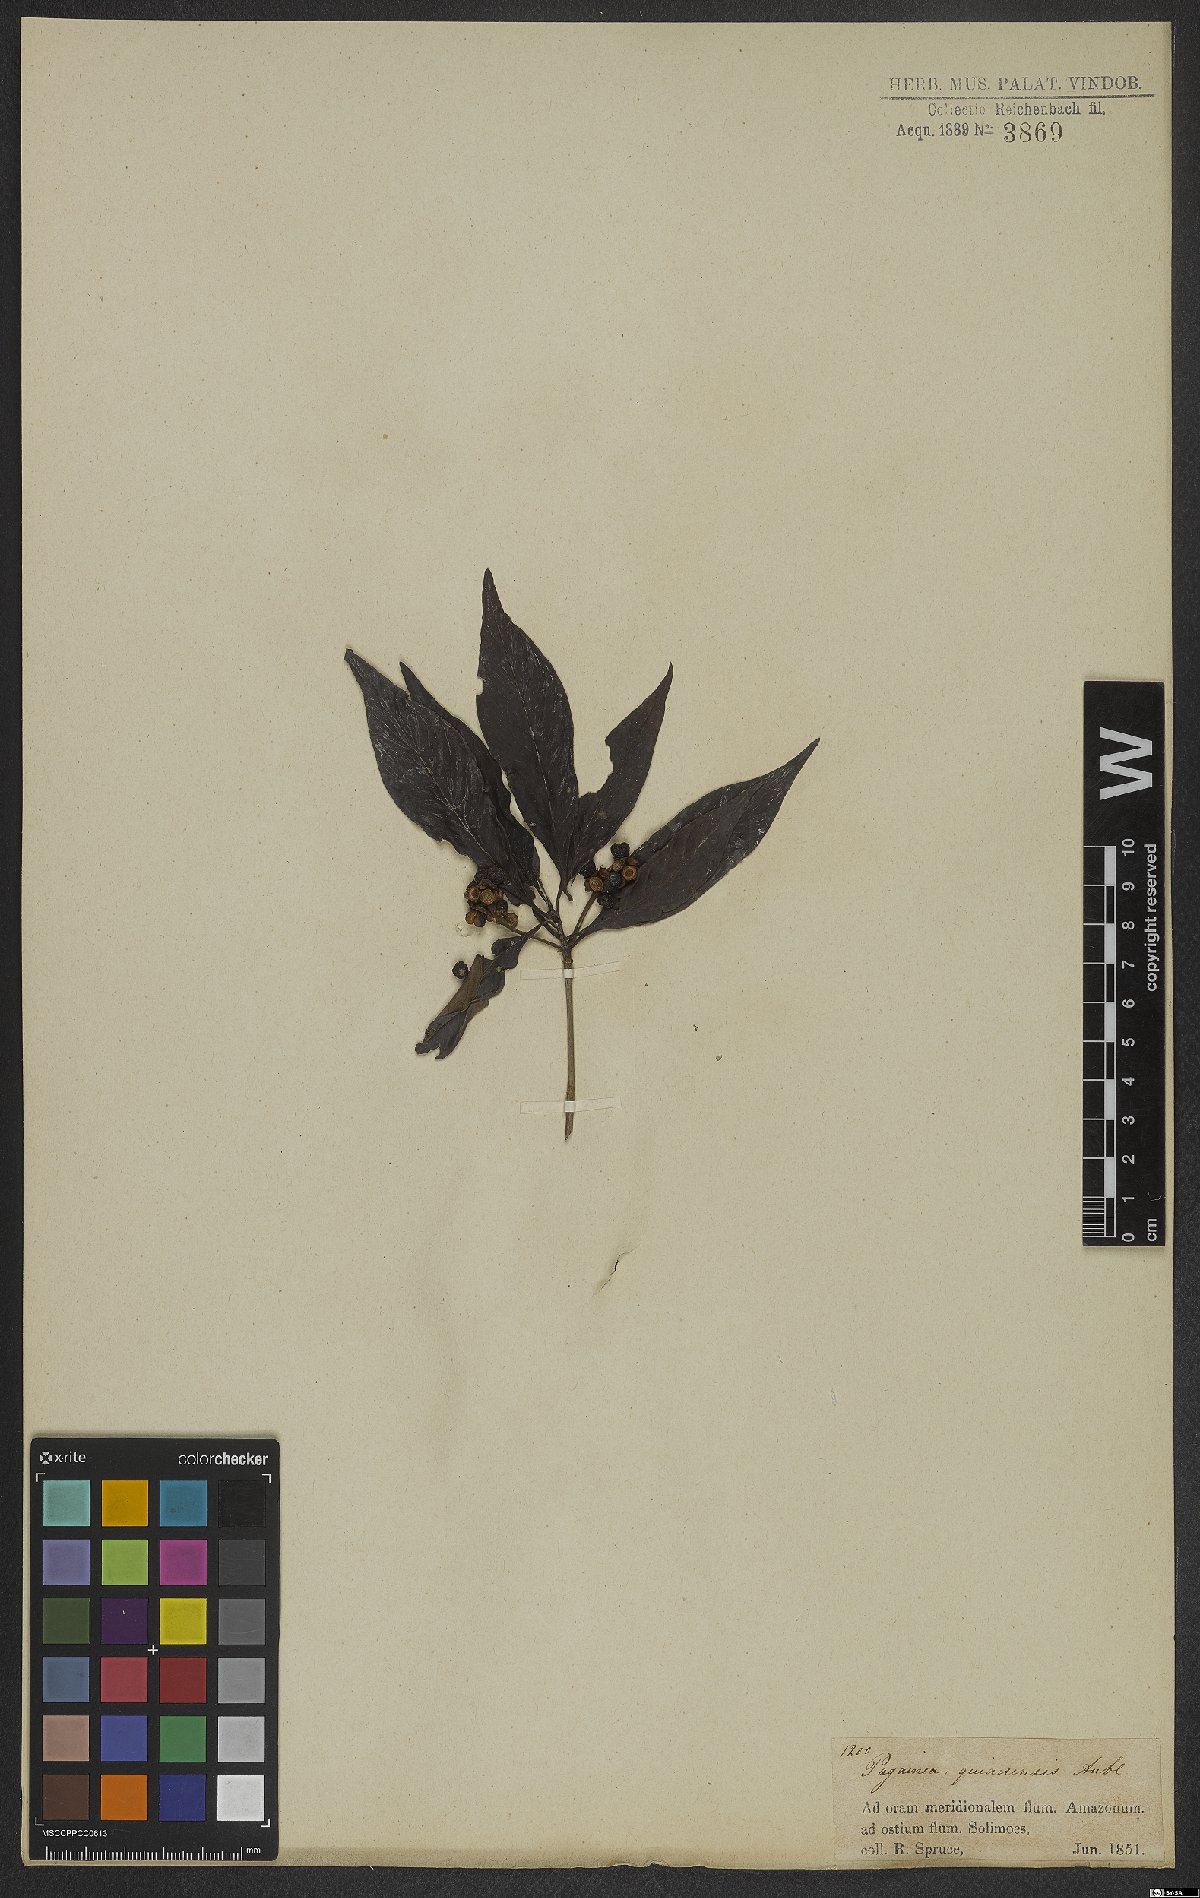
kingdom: Plantae
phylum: Tracheophyta
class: Magnoliopsida
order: Gentianales
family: Rubiaceae
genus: Pagamea
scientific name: Pagamea guianensis
